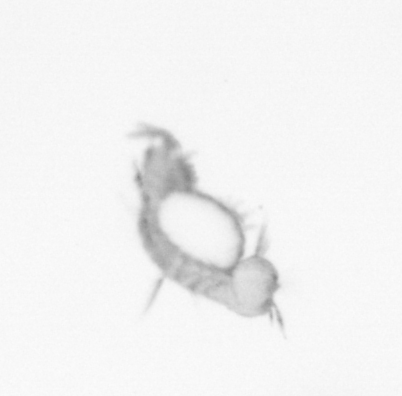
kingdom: Animalia
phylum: Annelida
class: Polychaeta
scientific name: Polychaeta
